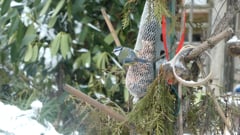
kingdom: Animalia
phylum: Chordata
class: Aves
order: Passeriformes
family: Paridae
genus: Cyanistes
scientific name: Cyanistes caeruleus
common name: Eurasian blue tit
